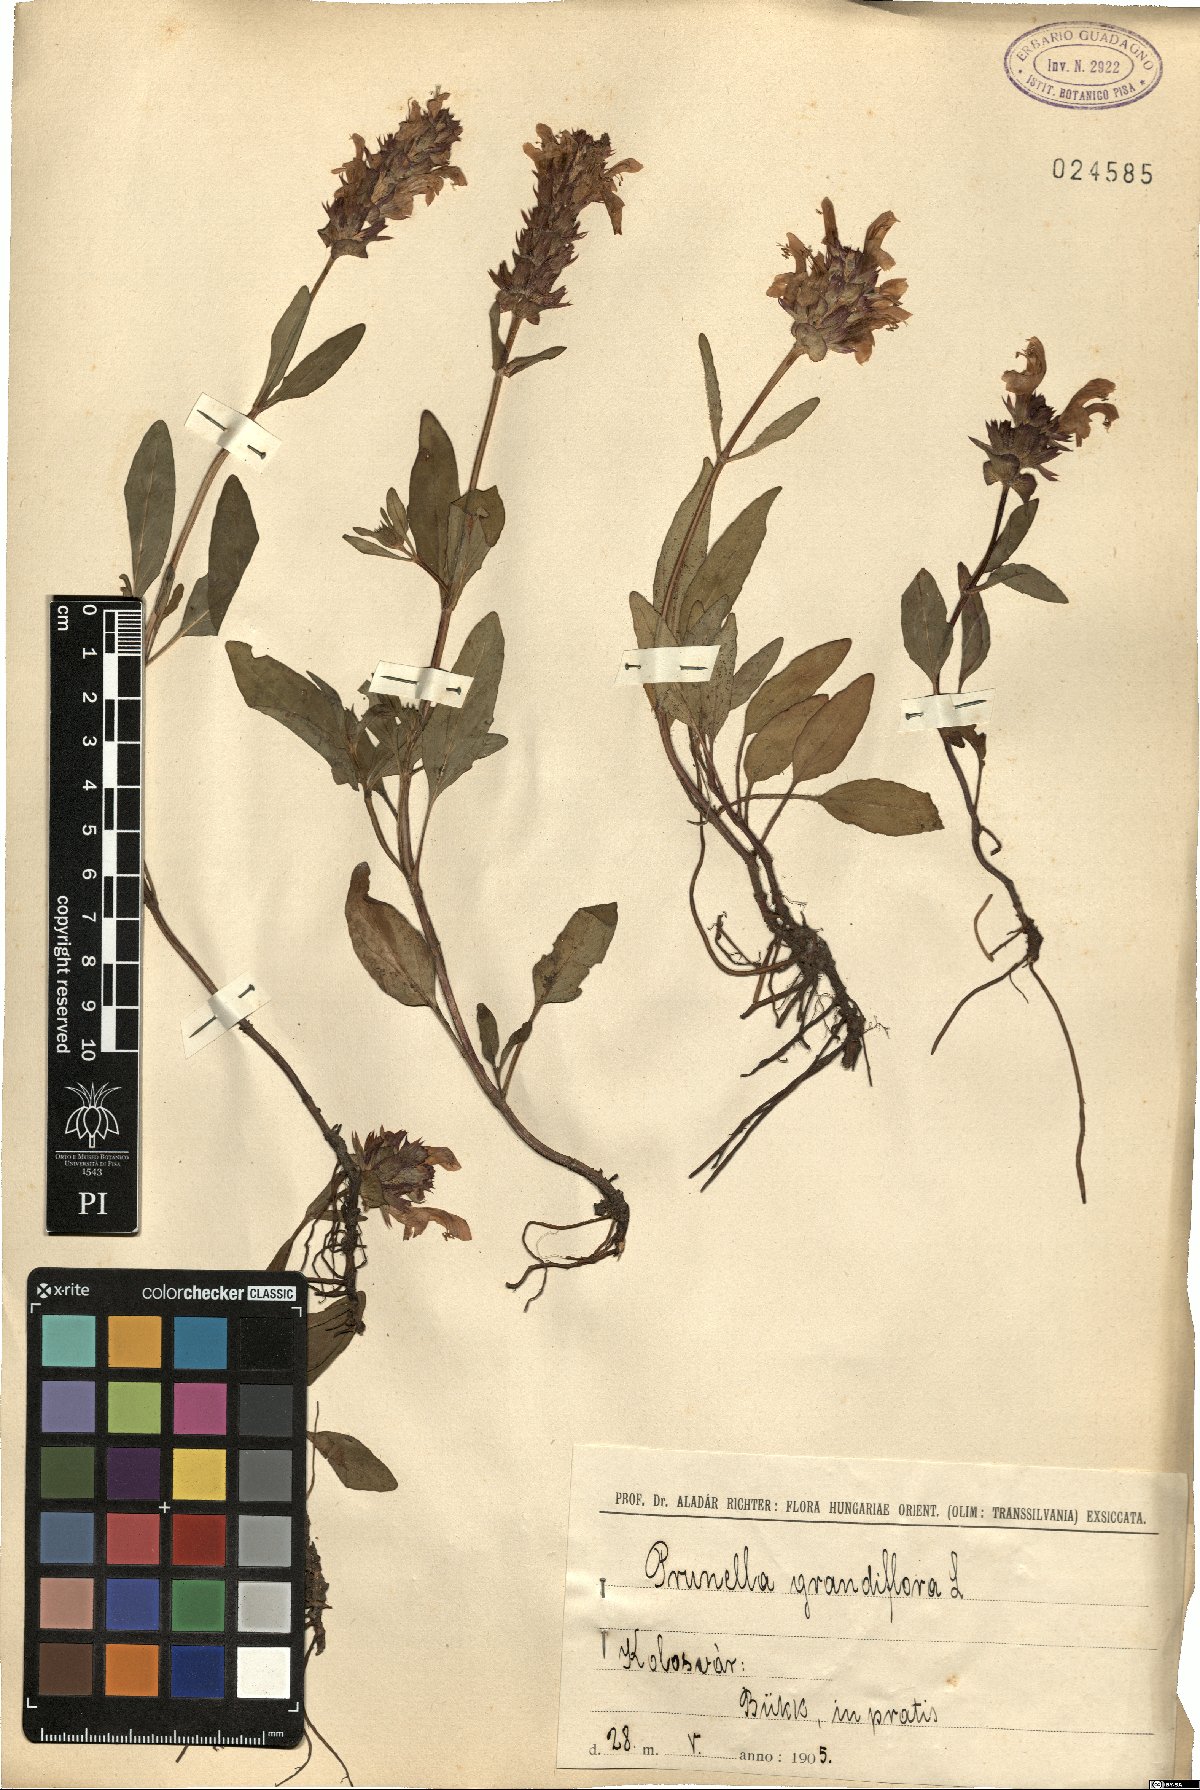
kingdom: Plantae
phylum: Tracheophyta
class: Magnoliopsida
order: Lamiales
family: Lamiaceae
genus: Prunella
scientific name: Prunella grandiflora
